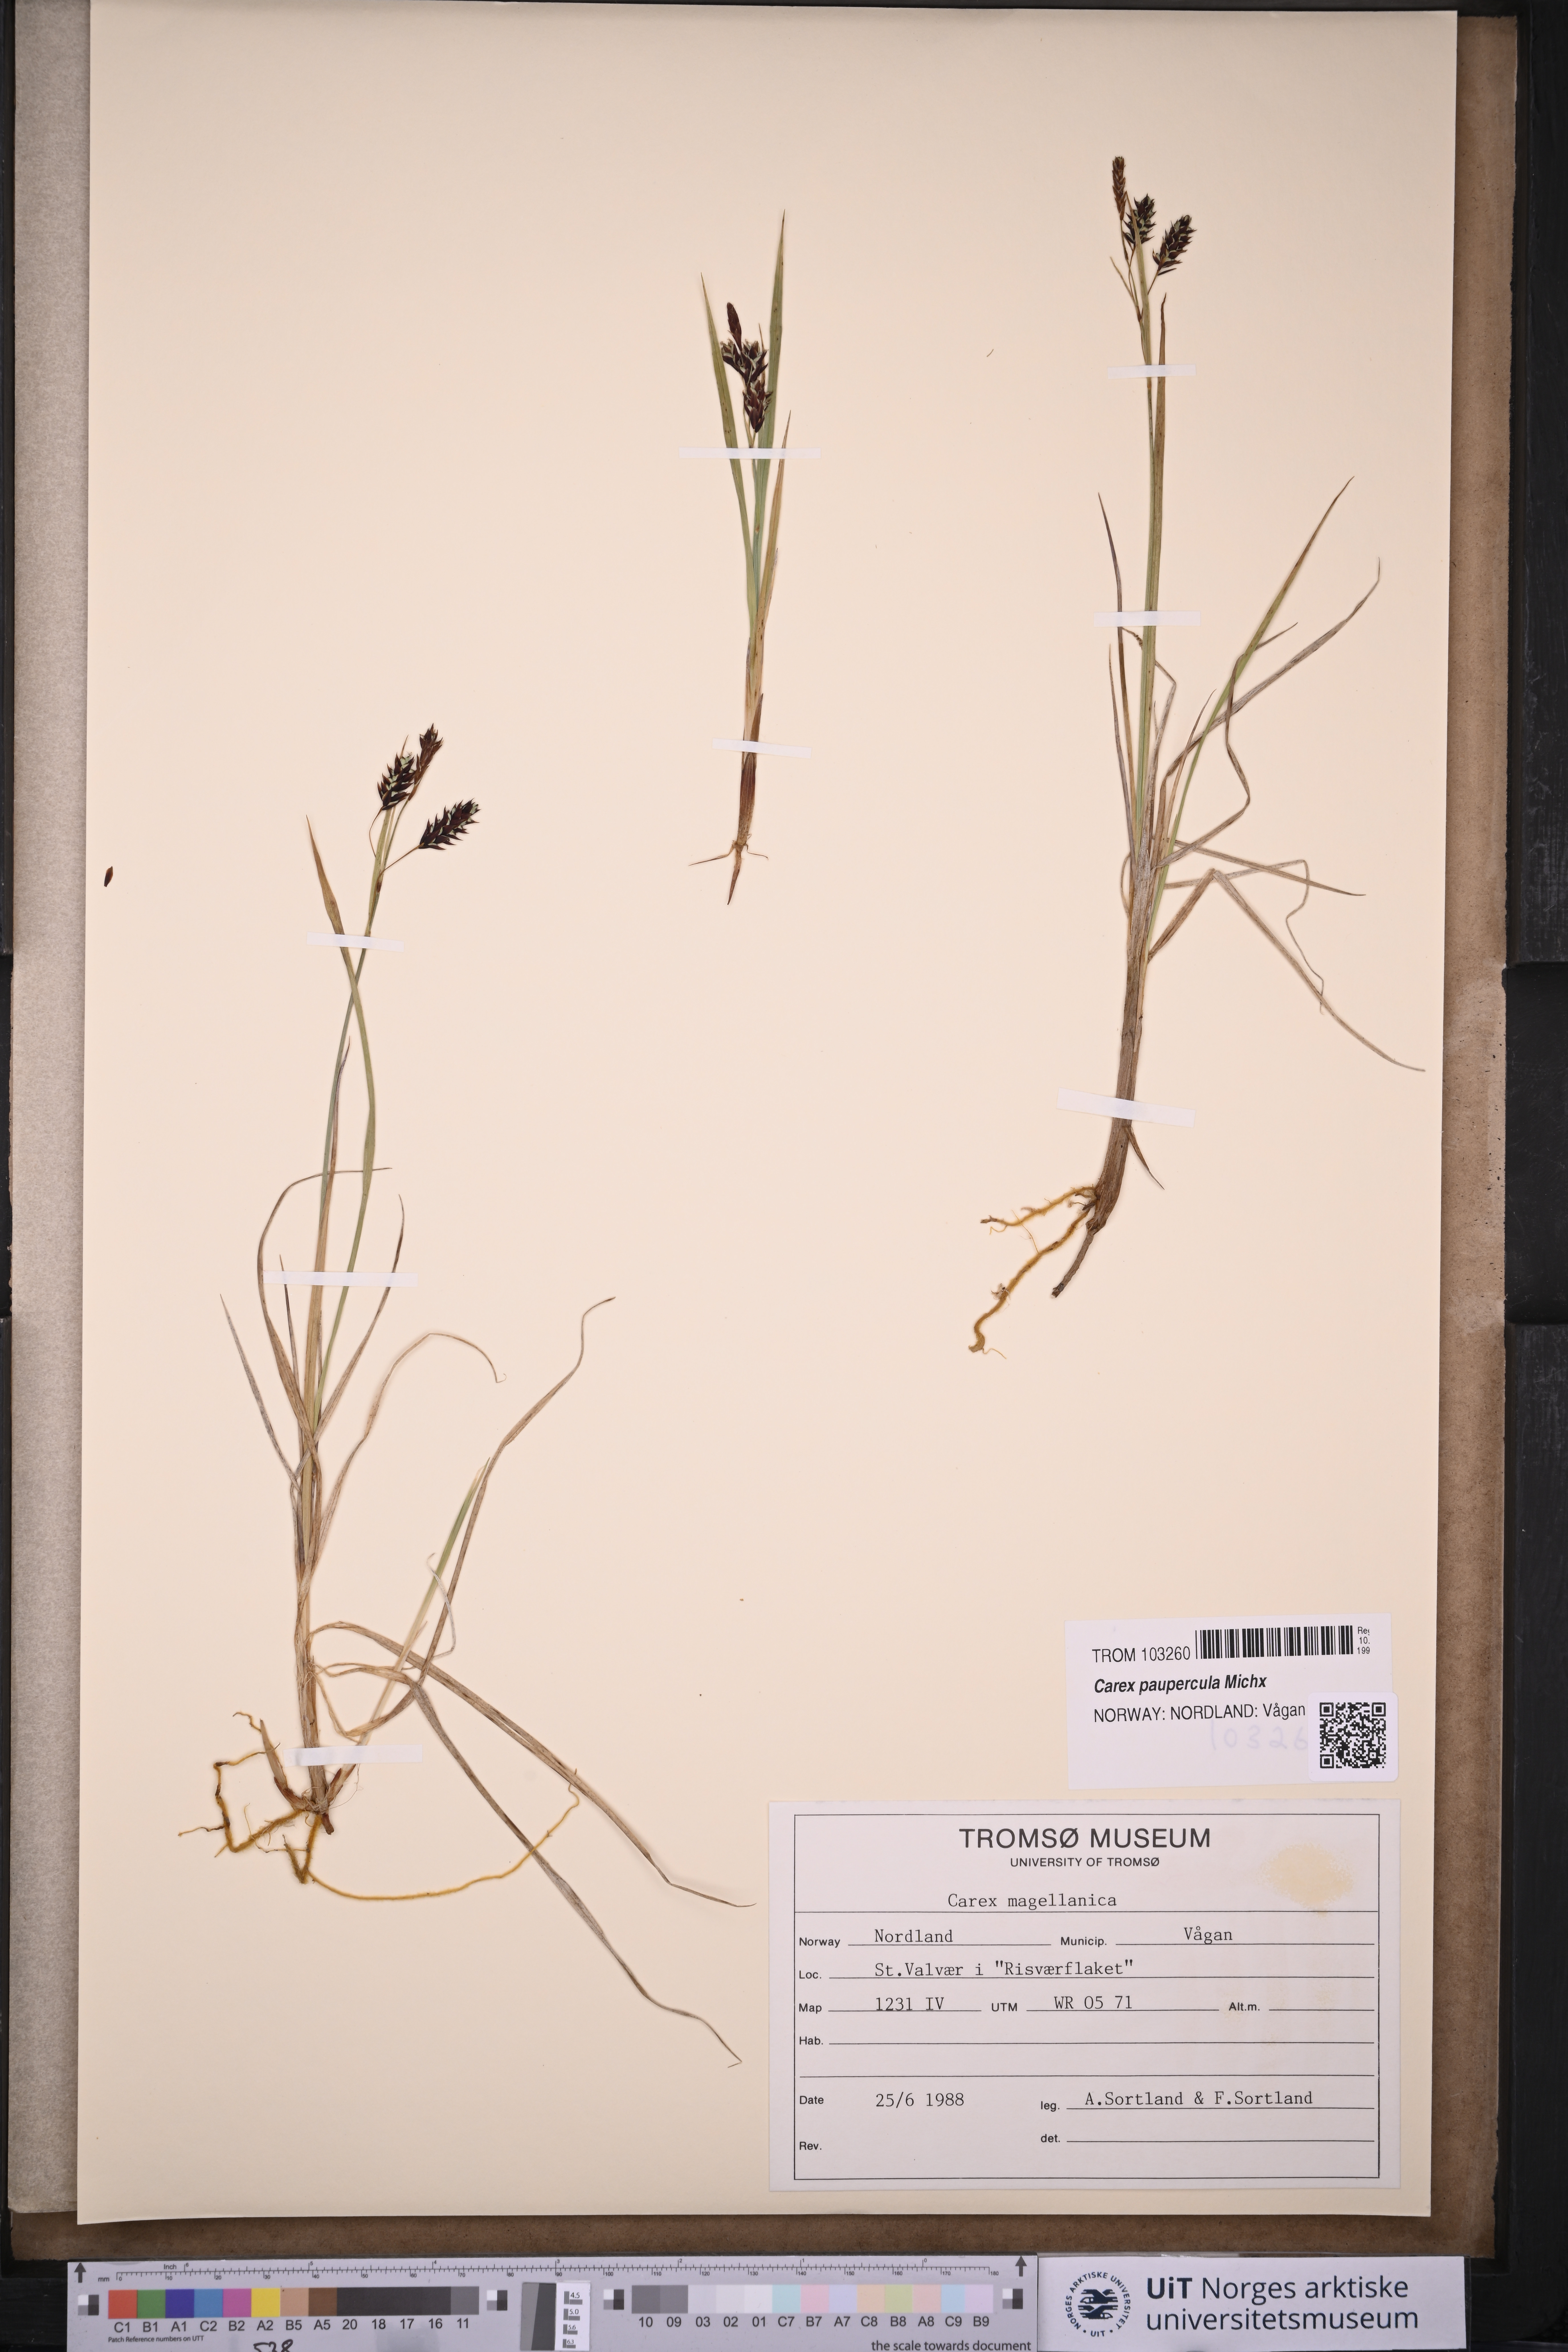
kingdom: Plantae
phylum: Tracheophyta
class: Liliopsida
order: Poales
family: Cyperaceae
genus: Carex
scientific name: Carex magellanica
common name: Bog sedge
